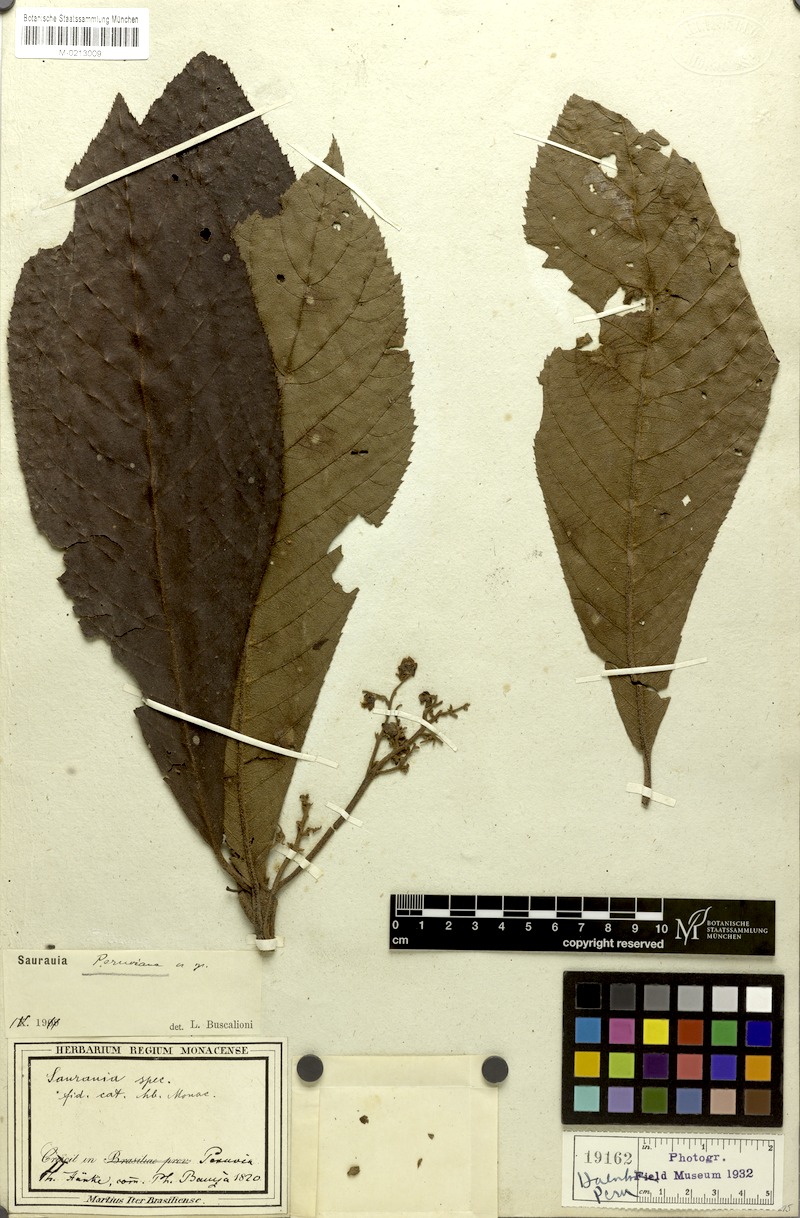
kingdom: Plantae
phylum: Tracheophyta
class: Magnoliopsida
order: Ericales
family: Actinidiaceae
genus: Saurauia
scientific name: Saurauia peruviana
